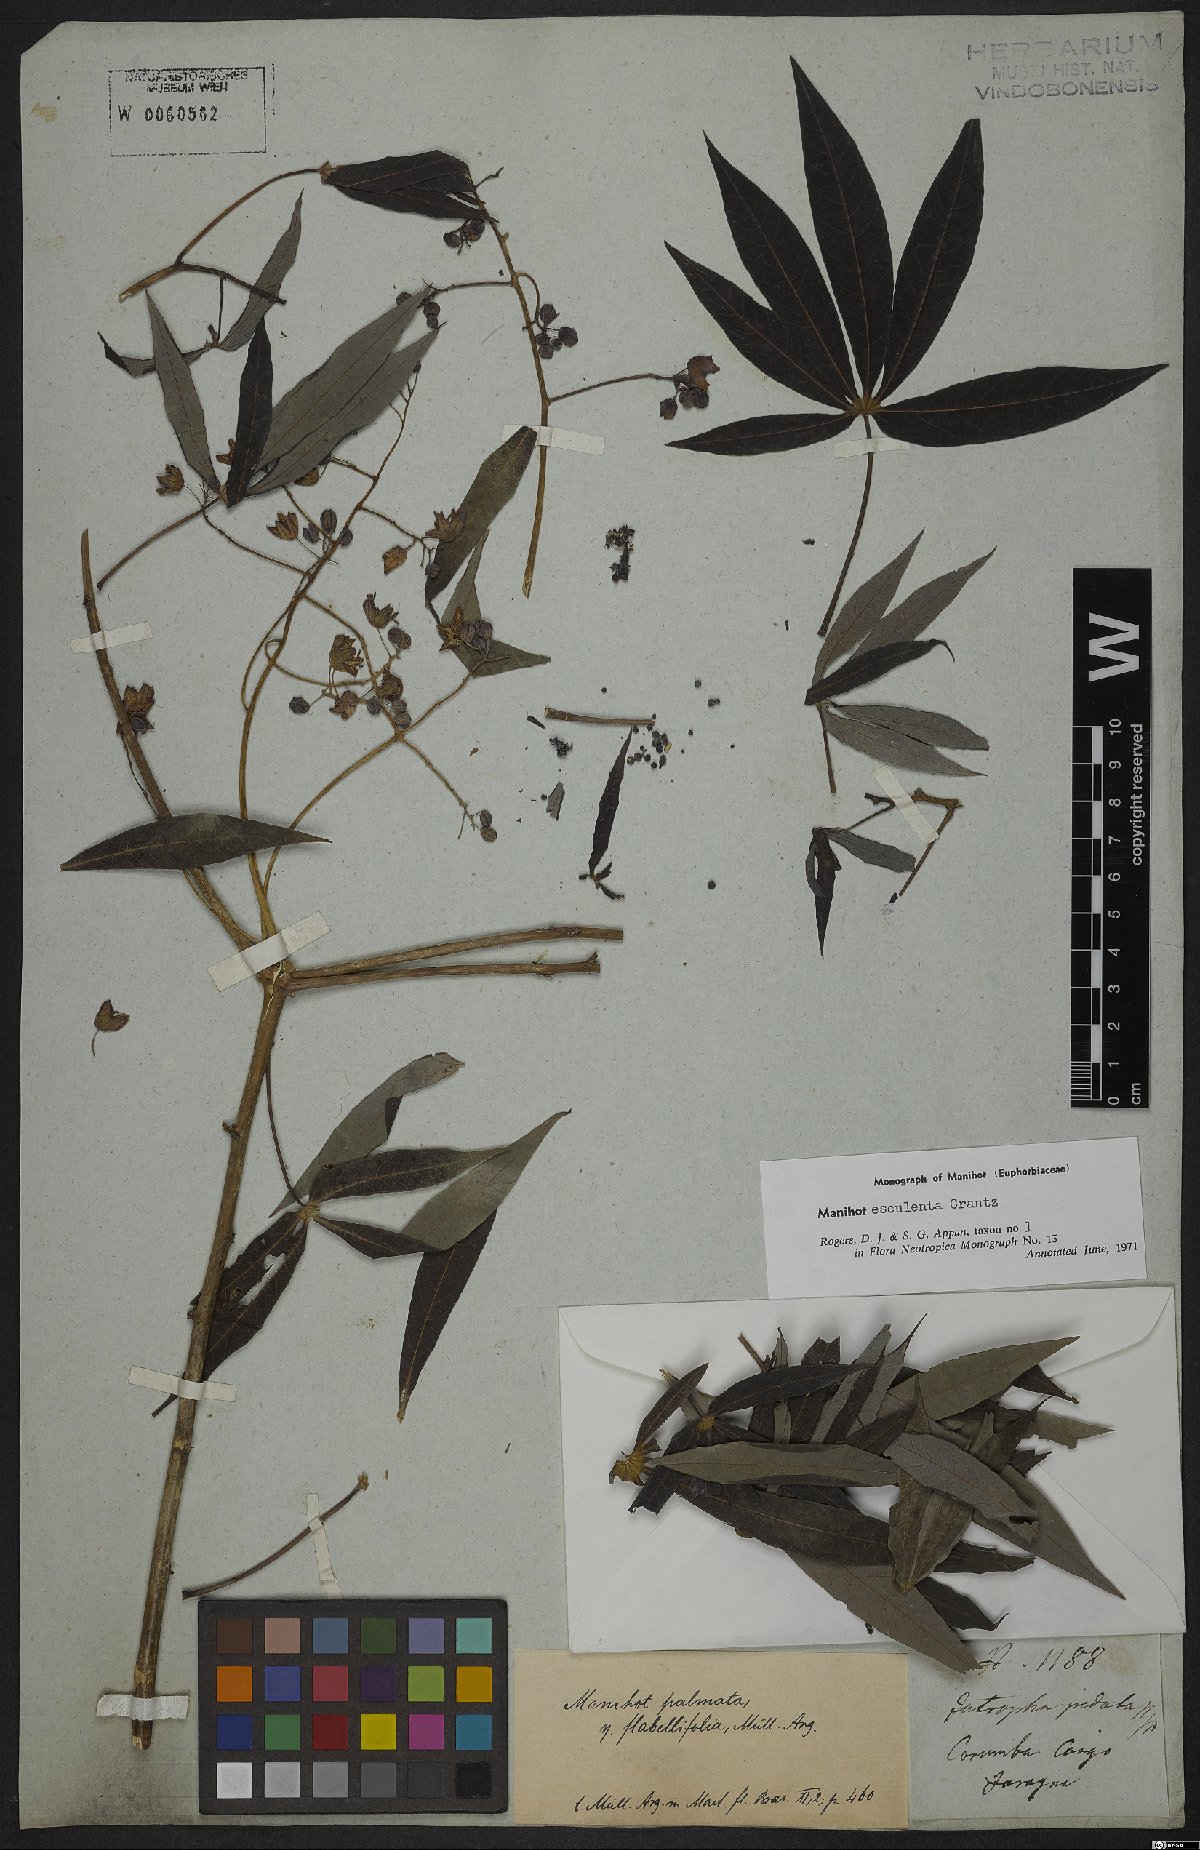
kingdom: Plantae
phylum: Tracheophyta
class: Magnoliopsida
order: Malpighiales
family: Euphorbiaceae
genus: Manihot
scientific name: Manihot esculenta
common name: Cassava
